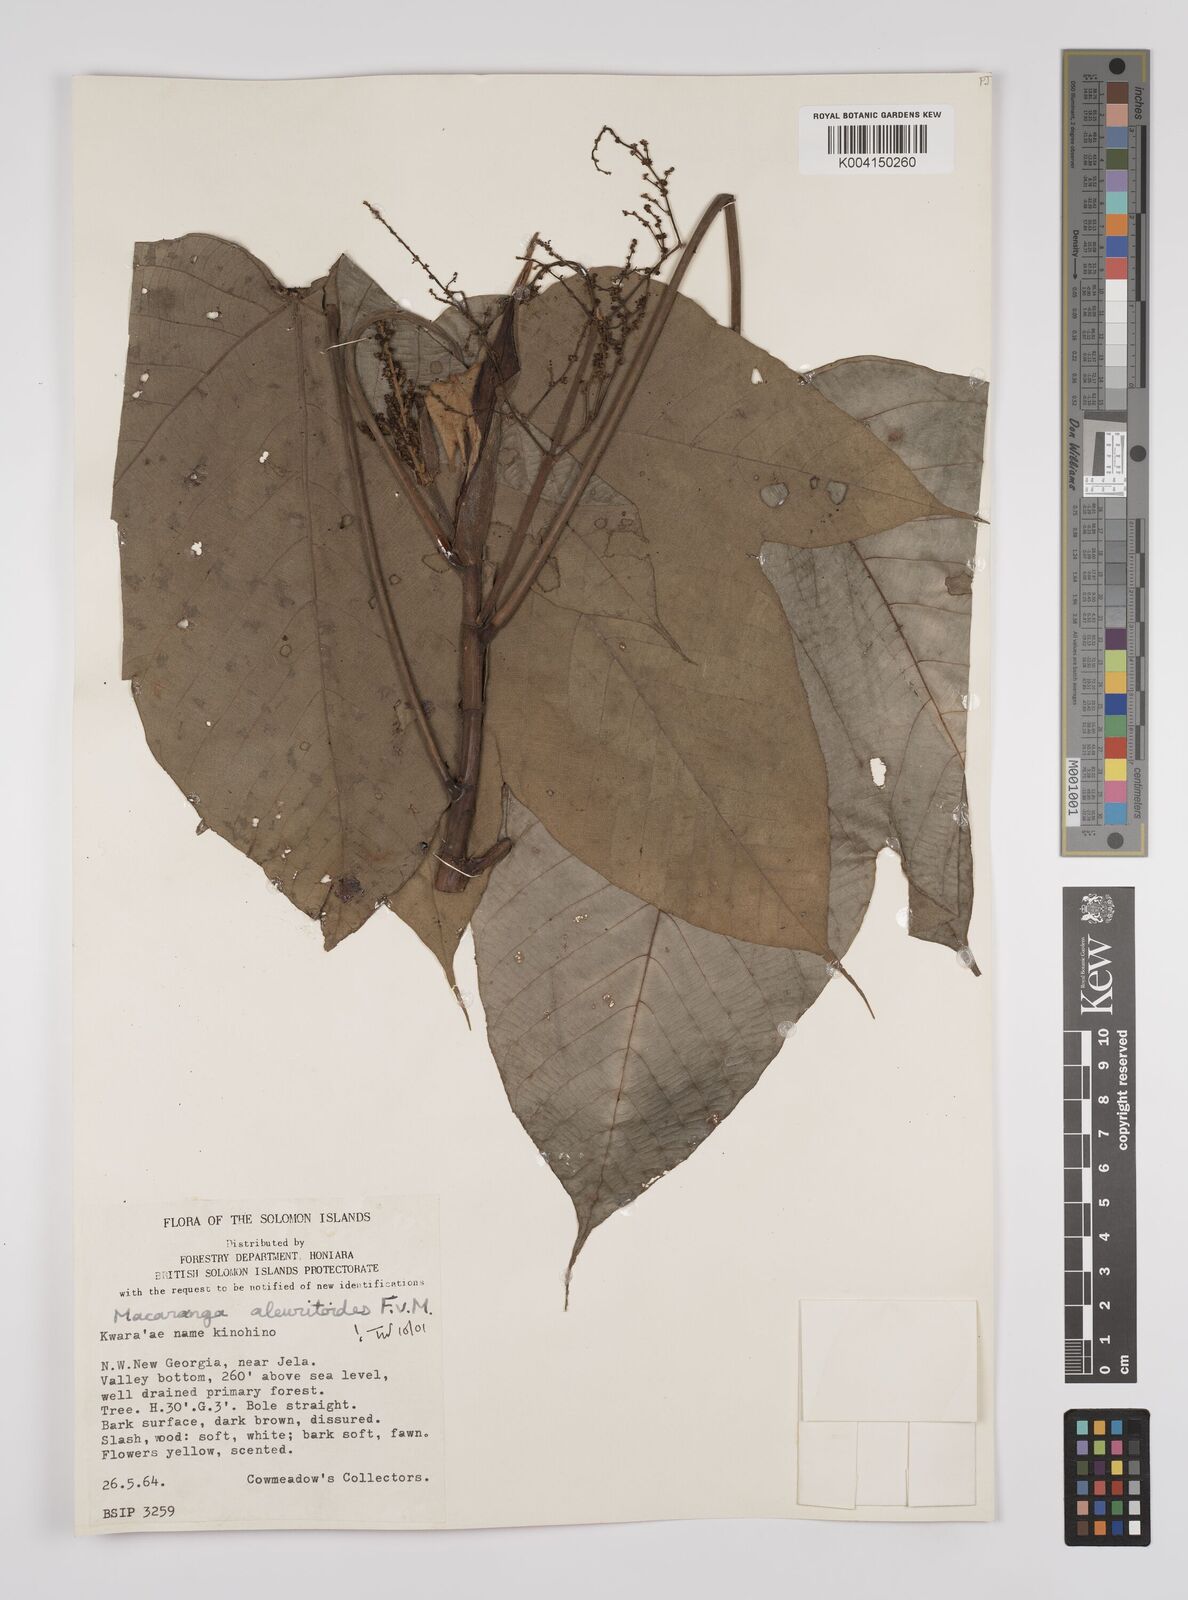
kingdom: Plantae
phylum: Tracheophyta
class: Magnoliopsida
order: Malpighiales
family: Euphorbiaceae
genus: Macaranga
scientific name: Macaranga aleuritoides
